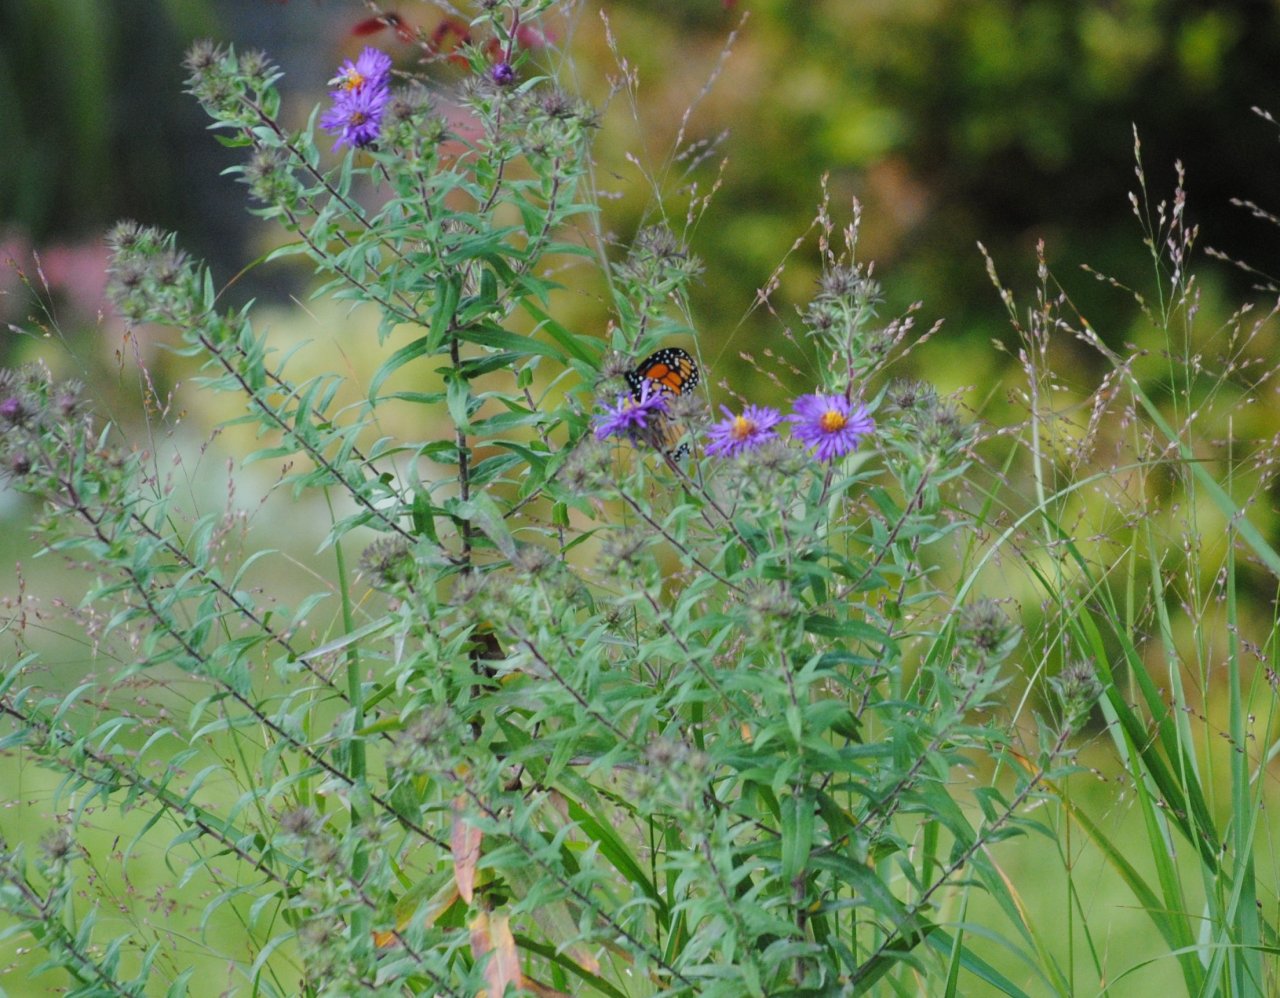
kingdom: Animalia
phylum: Arthropoda
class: Insecta
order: Lepidoptera
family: Nymphalidae
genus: Danaus
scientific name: Danaus plexippus
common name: Monarch
